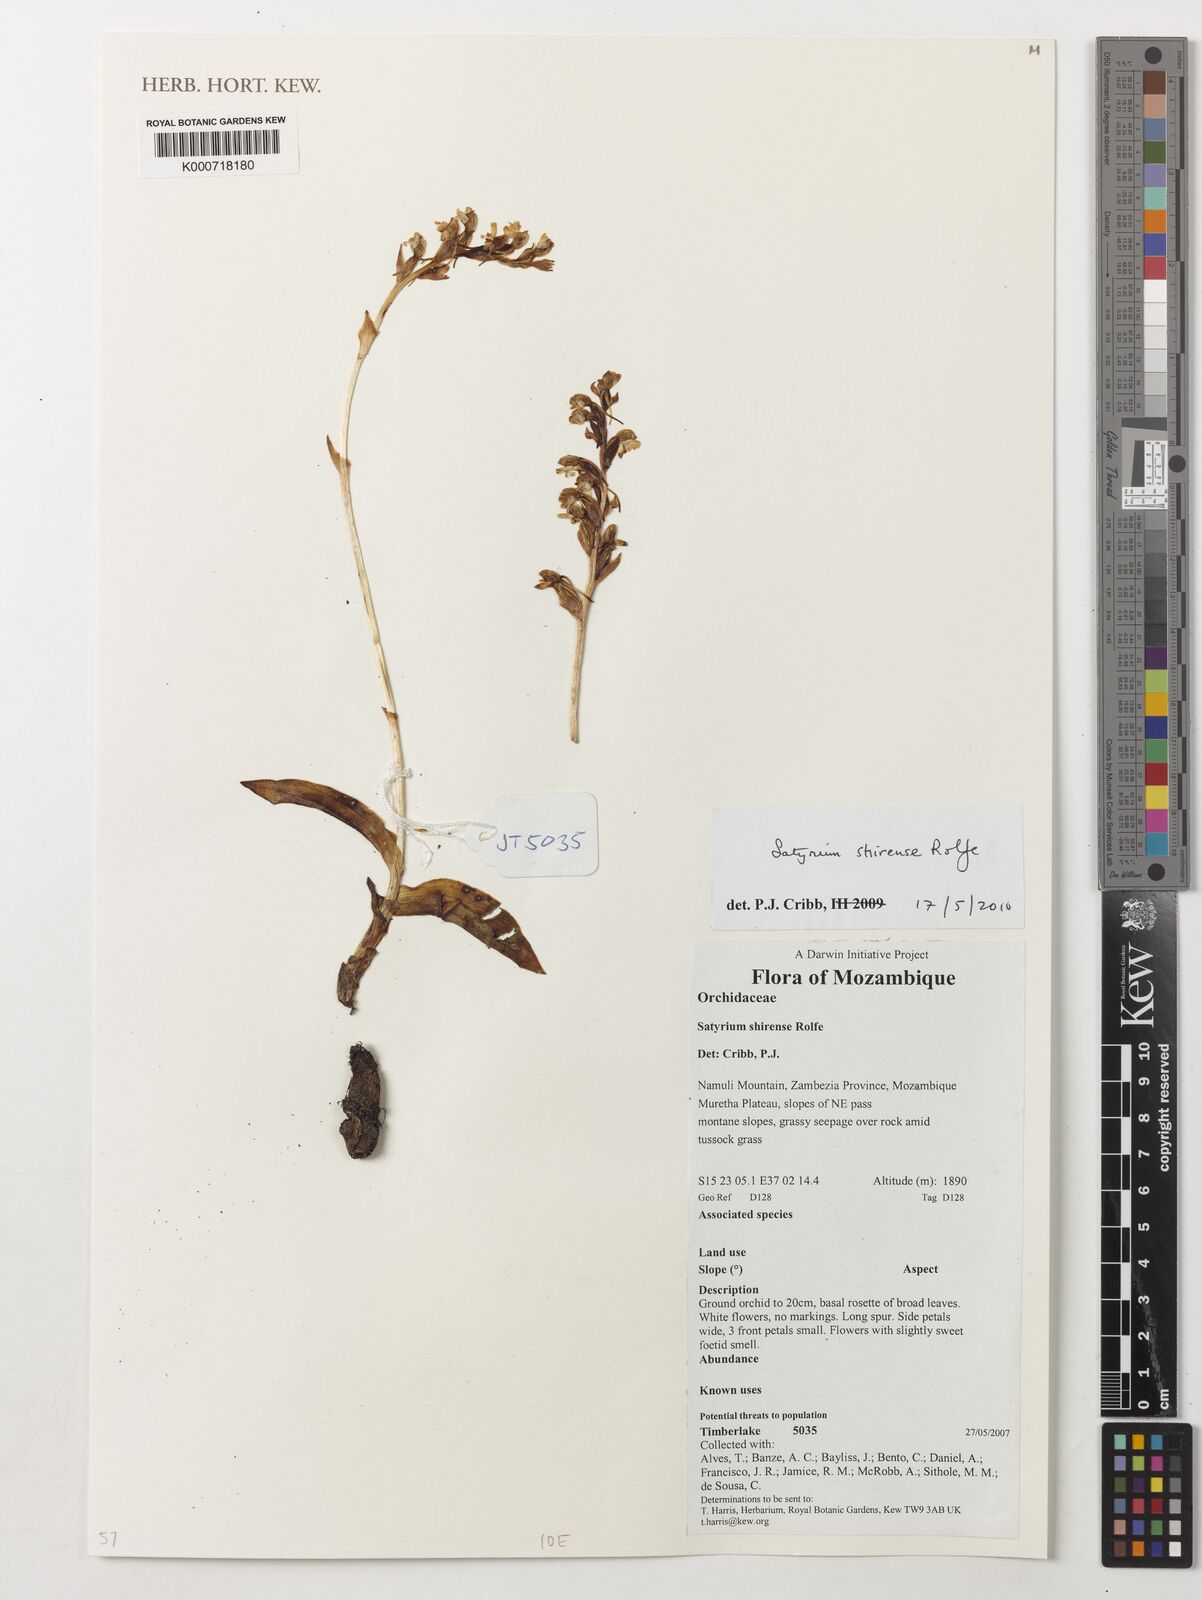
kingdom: Plantae
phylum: Tracheophyta
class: Liliopsida
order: Asparagales
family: Orchidaceae
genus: Satyrium
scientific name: Satyrium shirense
